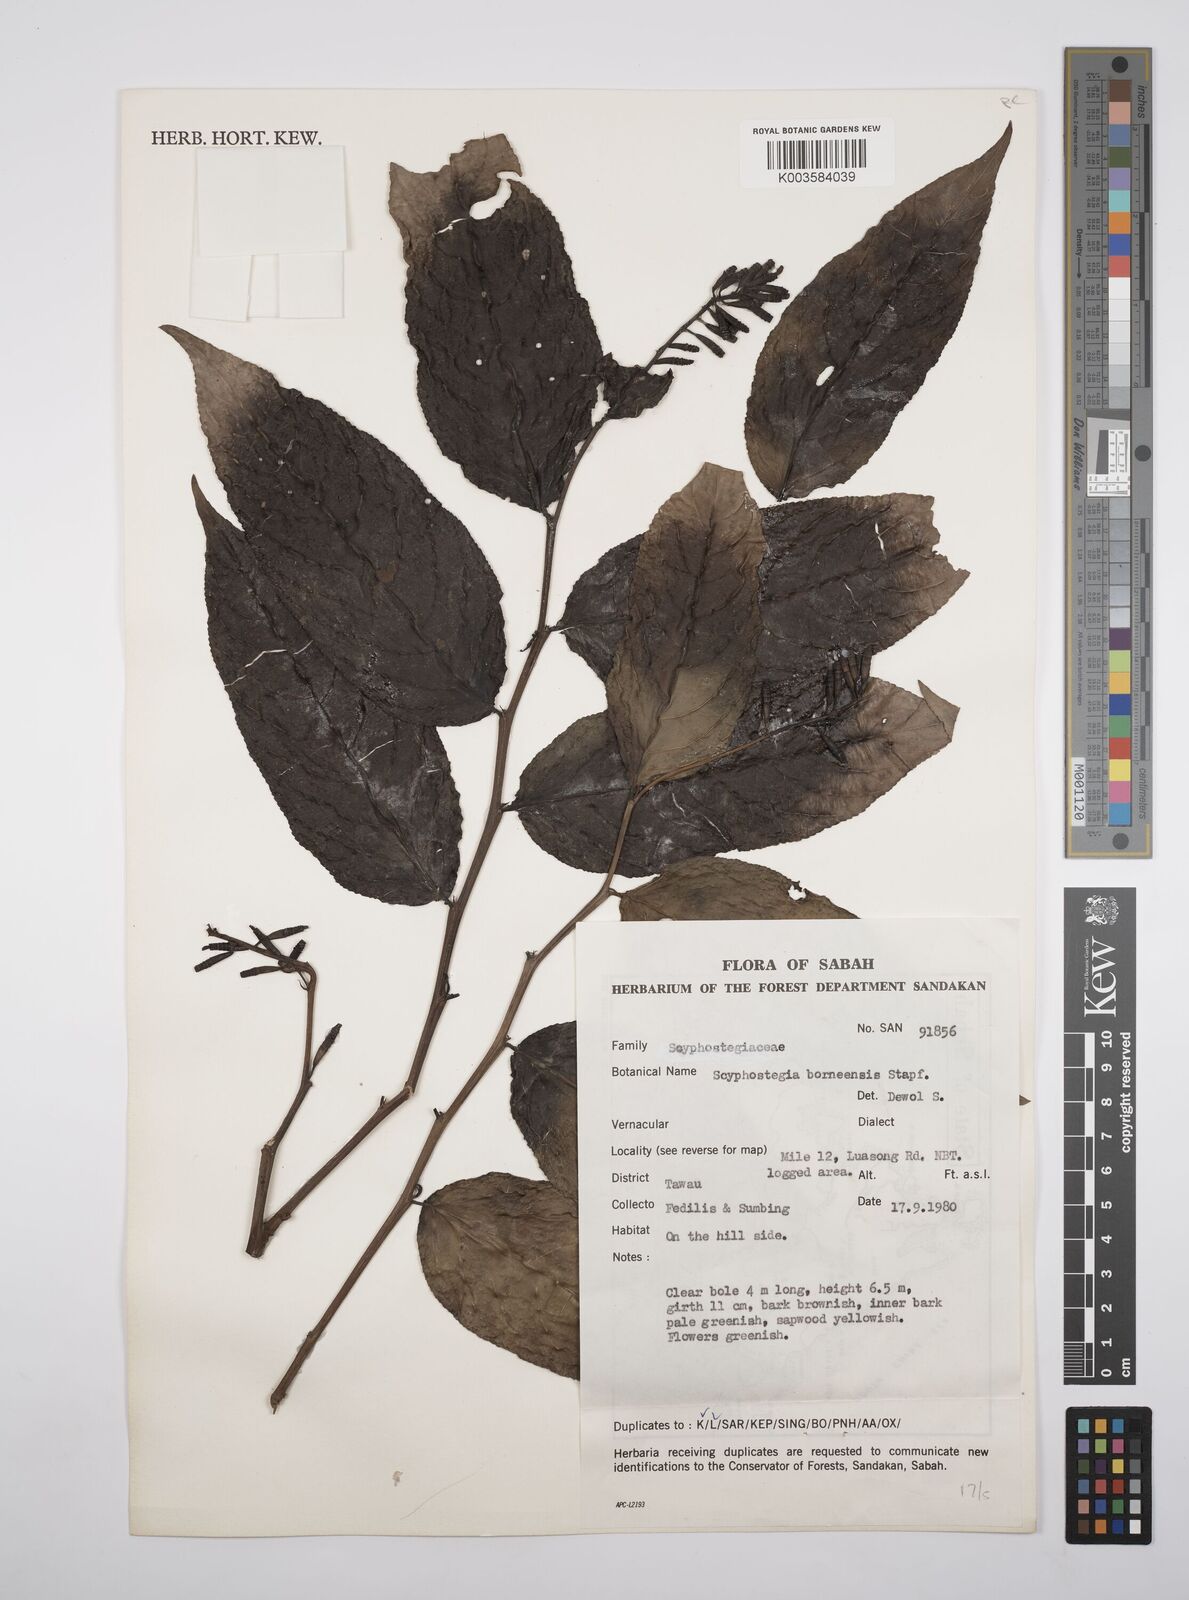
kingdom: Plantae
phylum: Tracheophyta
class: Magnoliopsida
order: Malpighiales
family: Salicaceae
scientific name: Salicaceae
